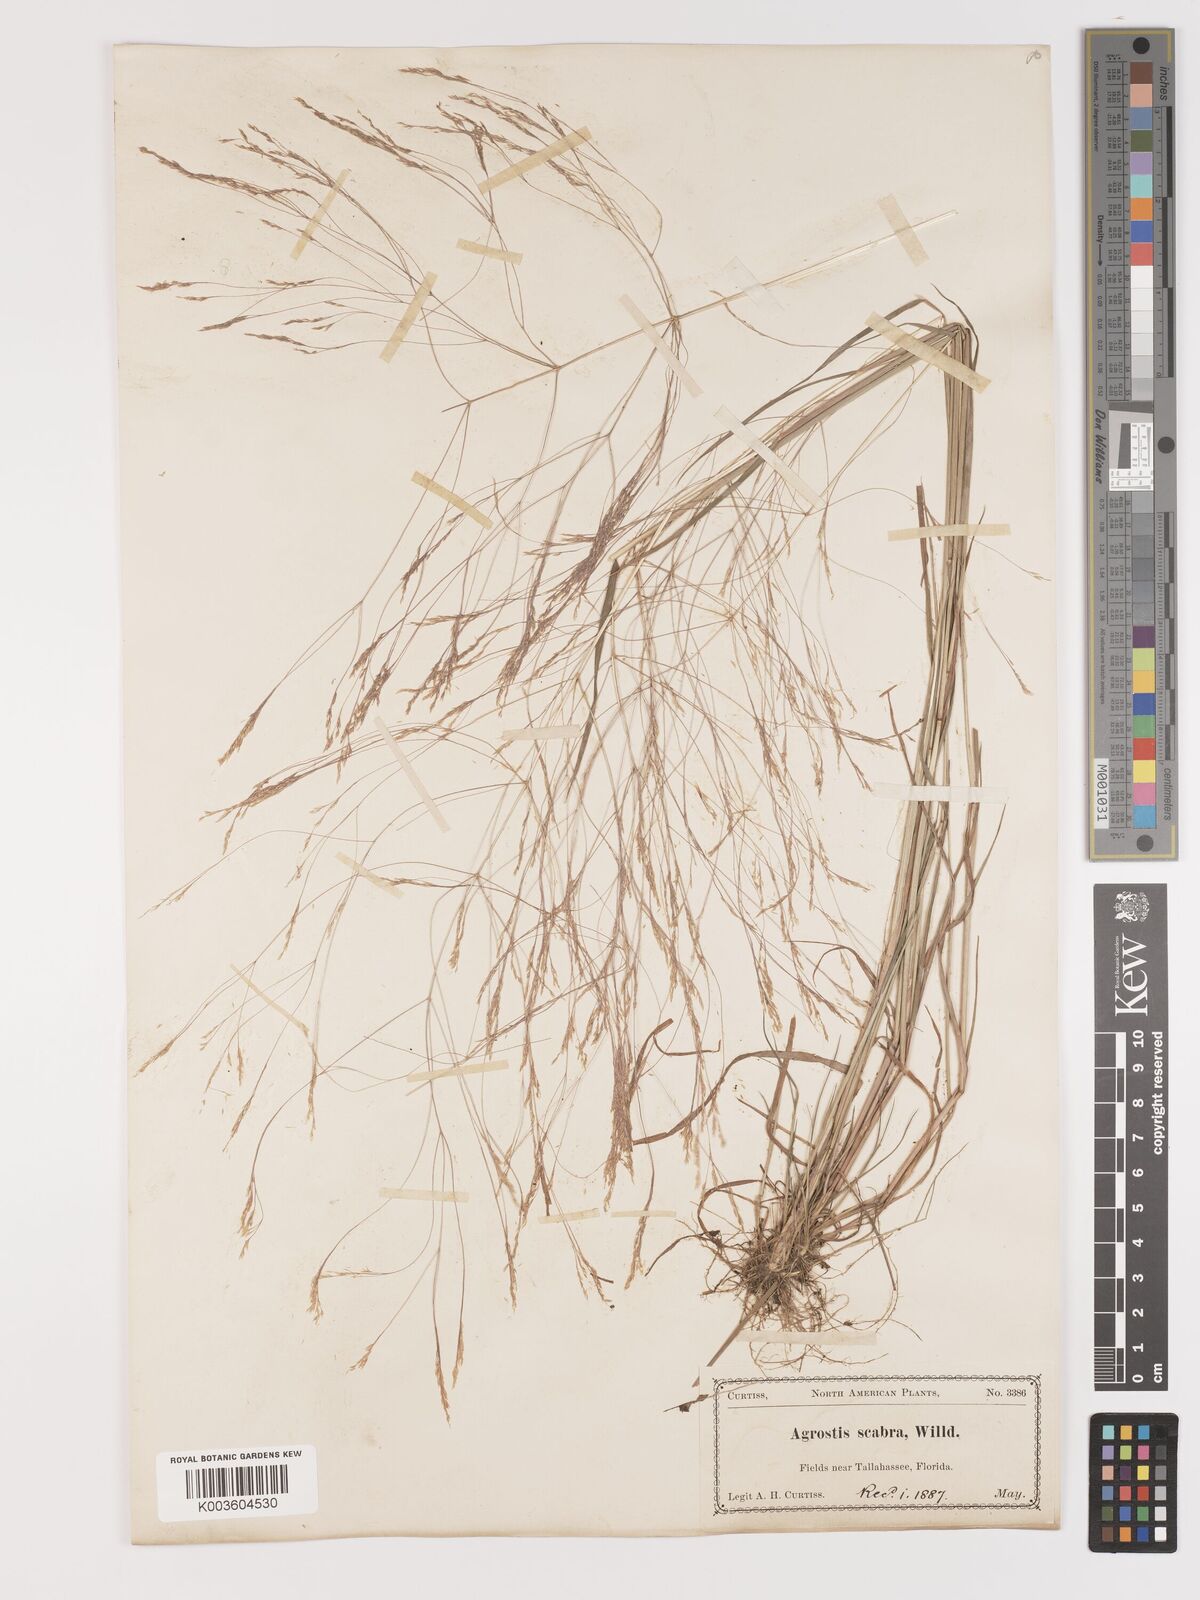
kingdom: Plantae
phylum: Tracheophyta
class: Liliopsida
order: Poales
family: Poaceae
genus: Agrostis
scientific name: Agrostis hyemalis
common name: Small bent
